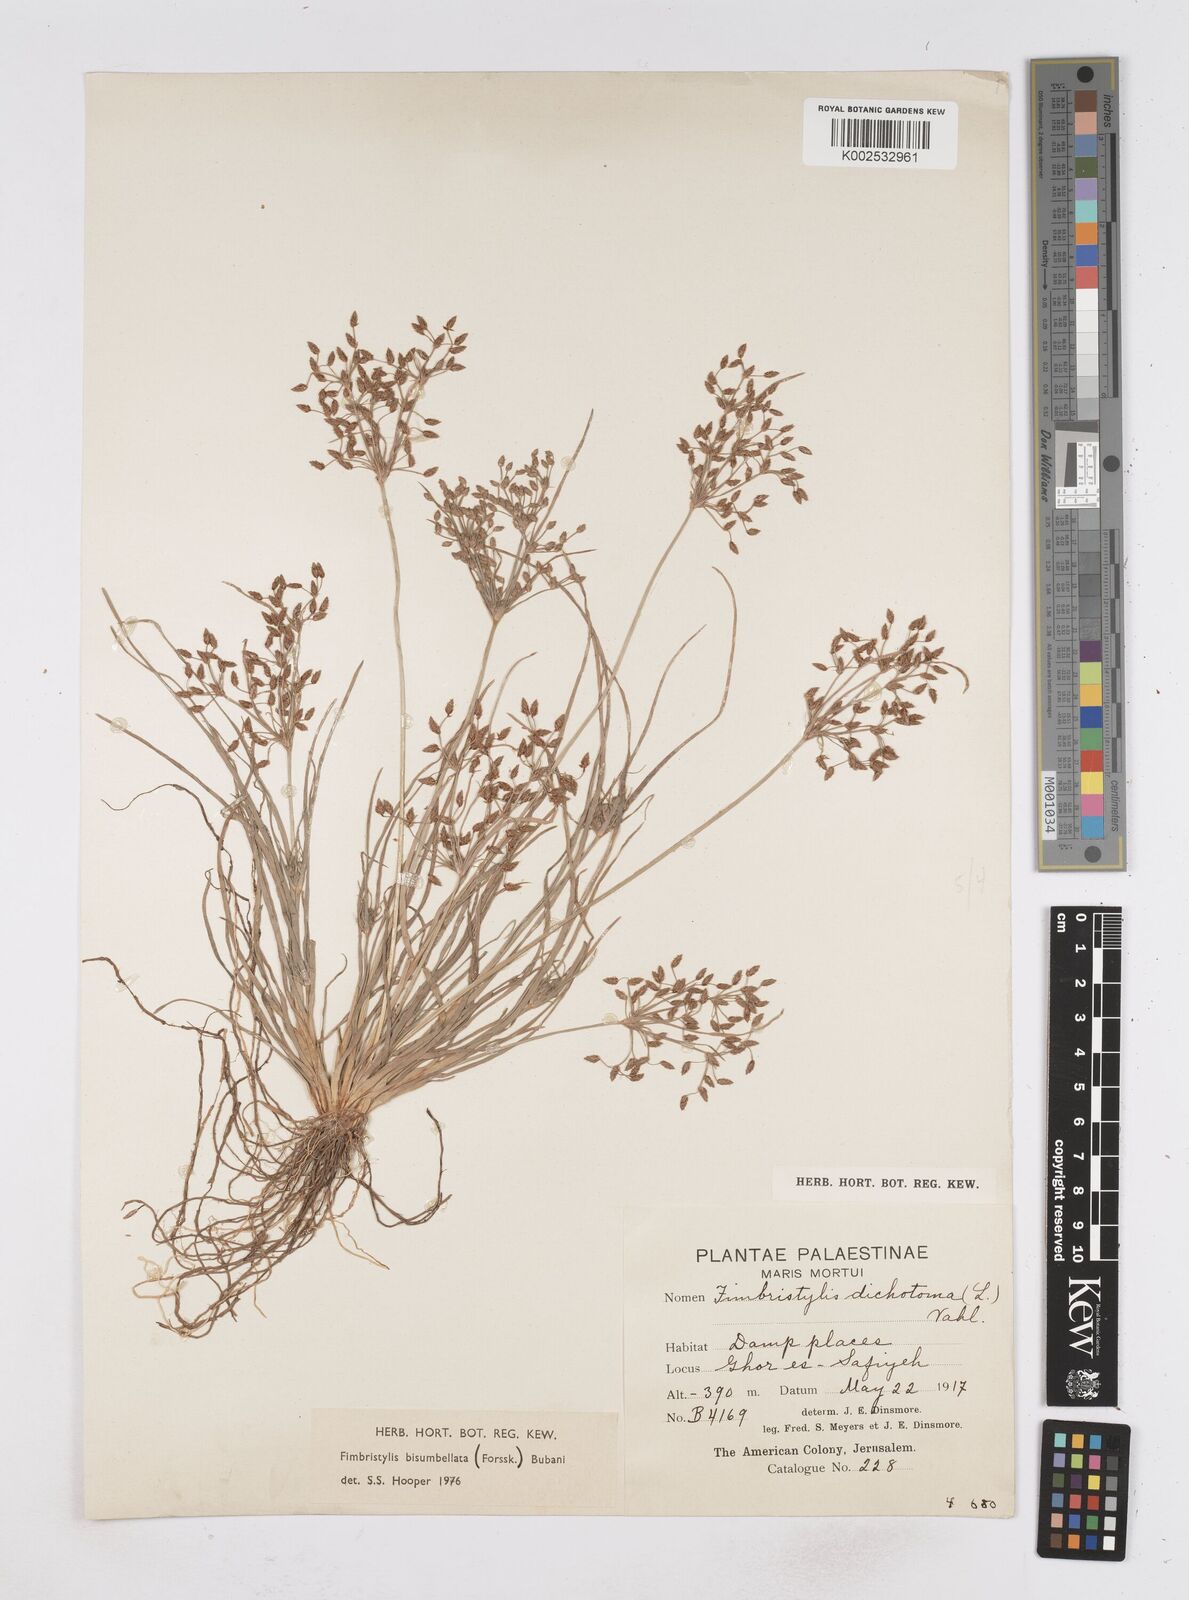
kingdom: Plantae
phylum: Tracheophyta
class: Liliopsida
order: Poales
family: Cyperaceae
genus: Fimbristylis
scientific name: Fimbristylis bisumbellata
